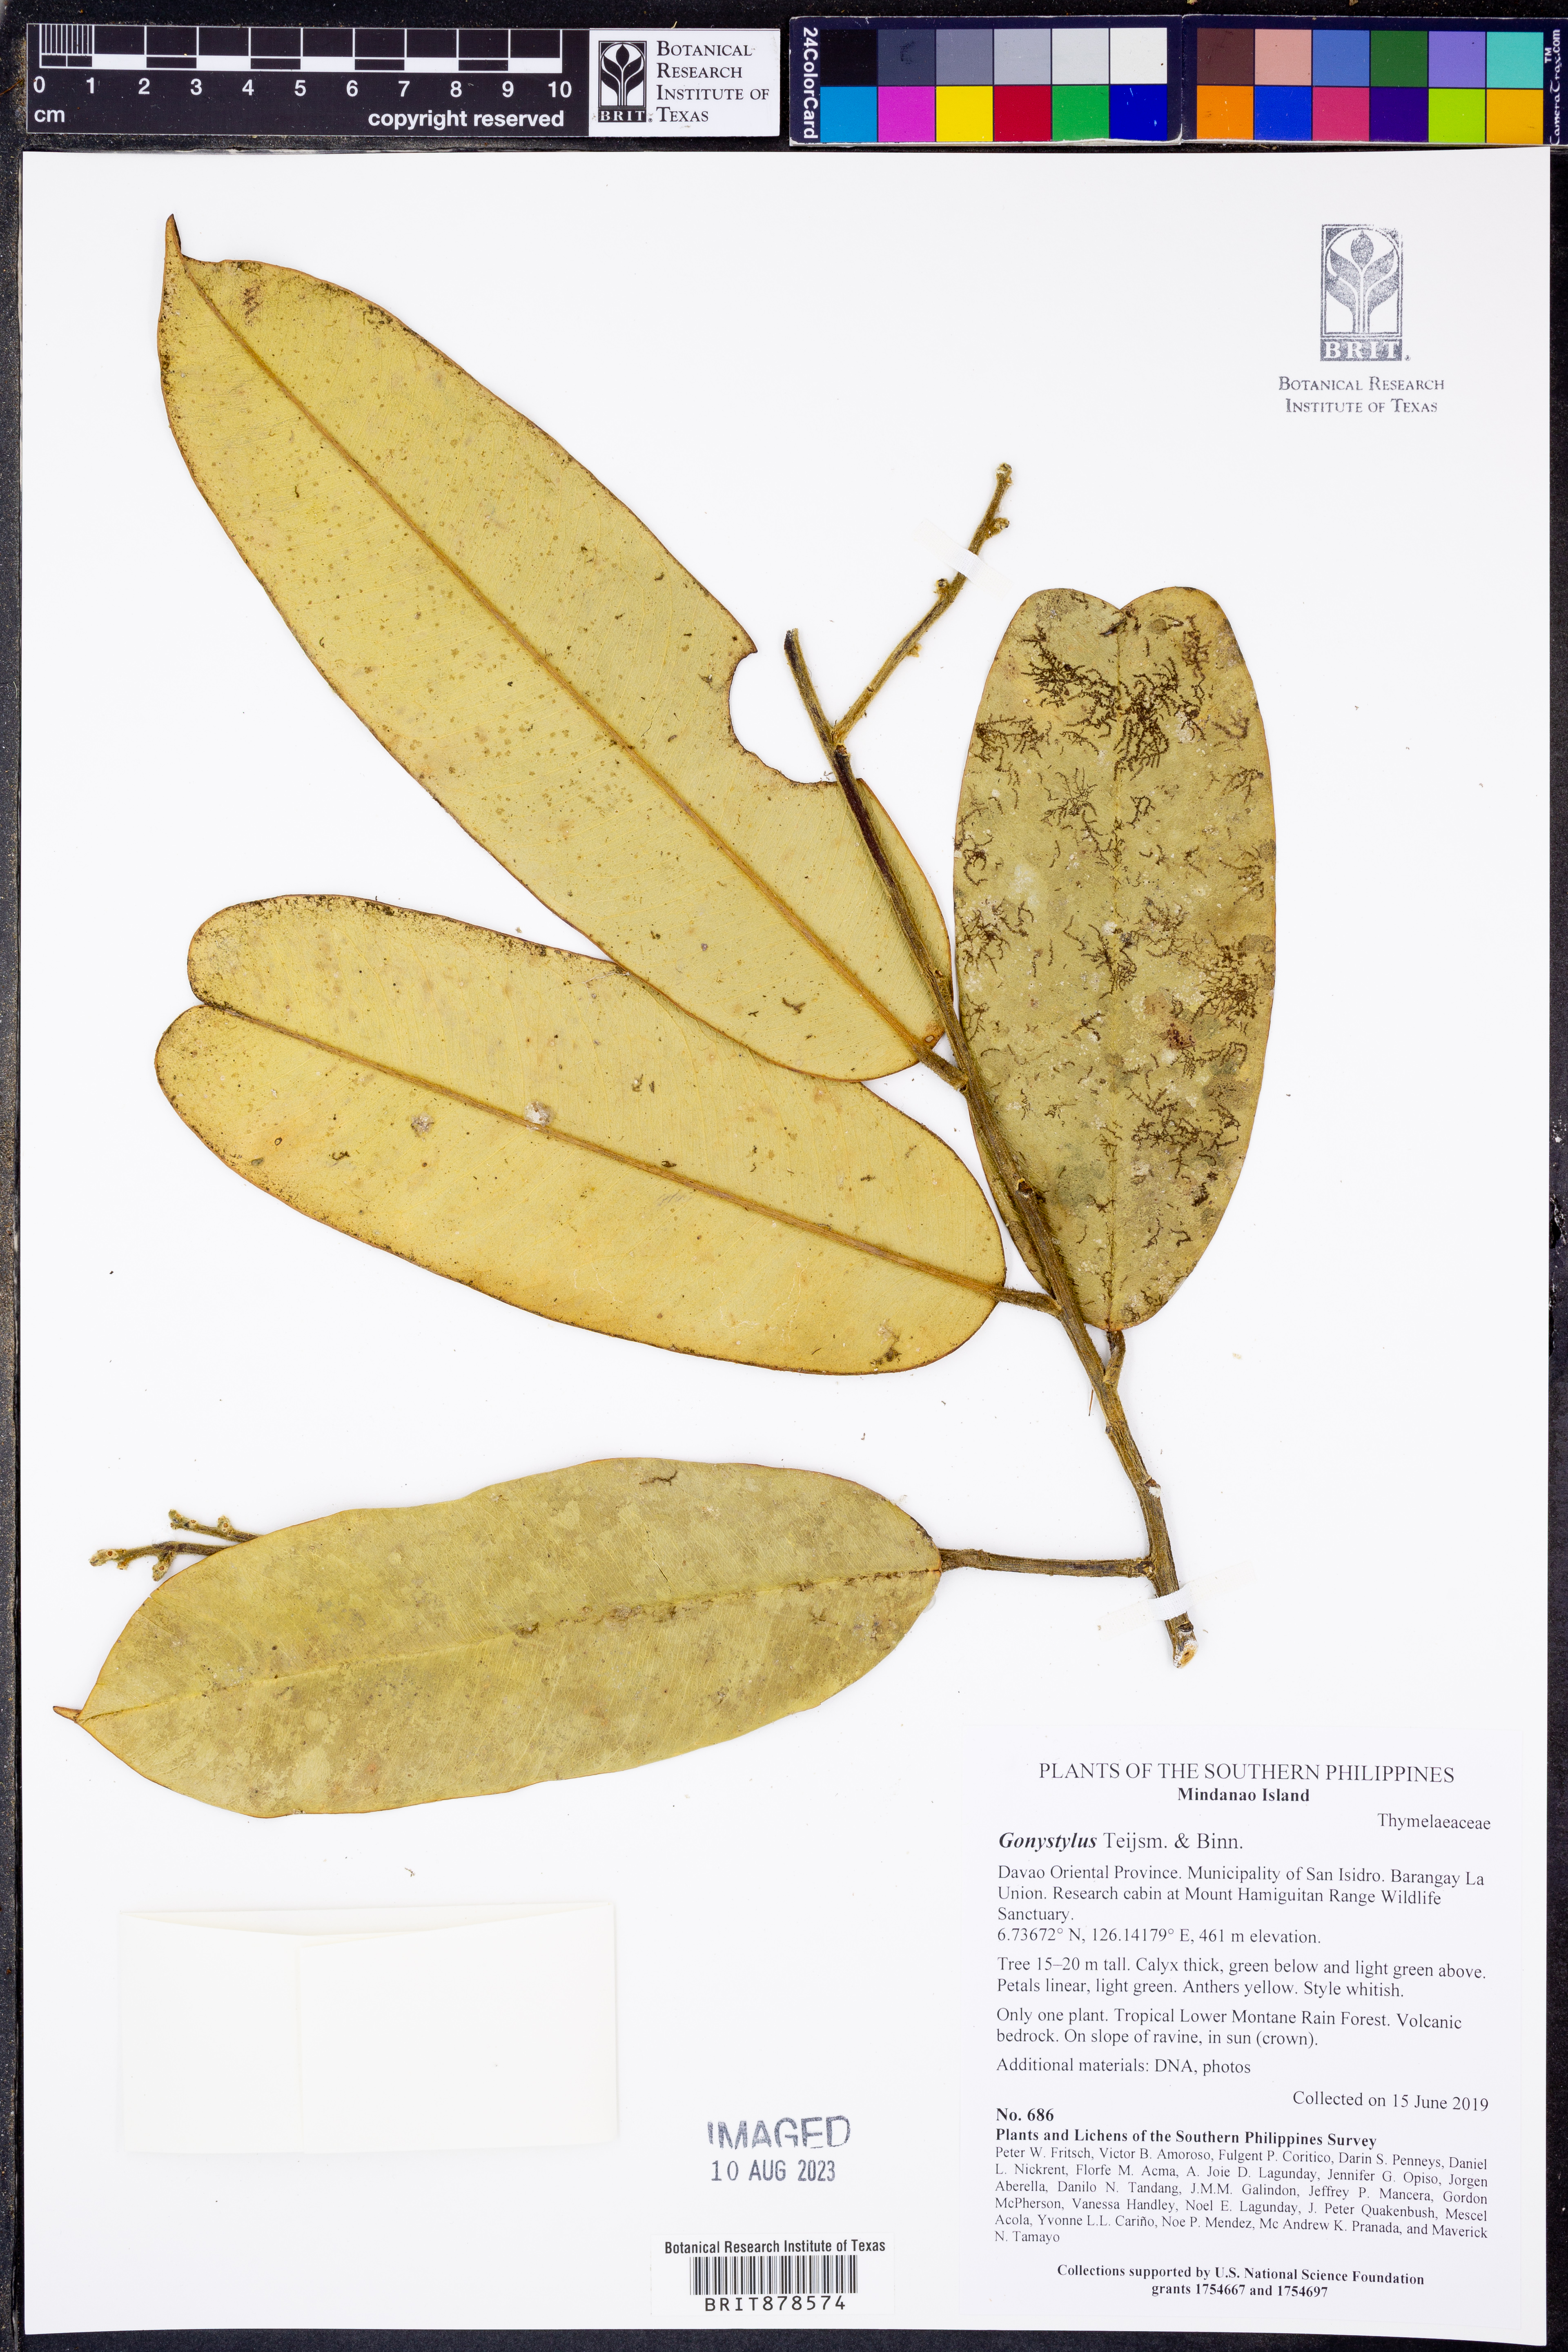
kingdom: Plantae
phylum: Tracheophyta
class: Magnoliopsida
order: Malvales
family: Thymelaeaceae
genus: Gonystylus
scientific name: Gonystylus
